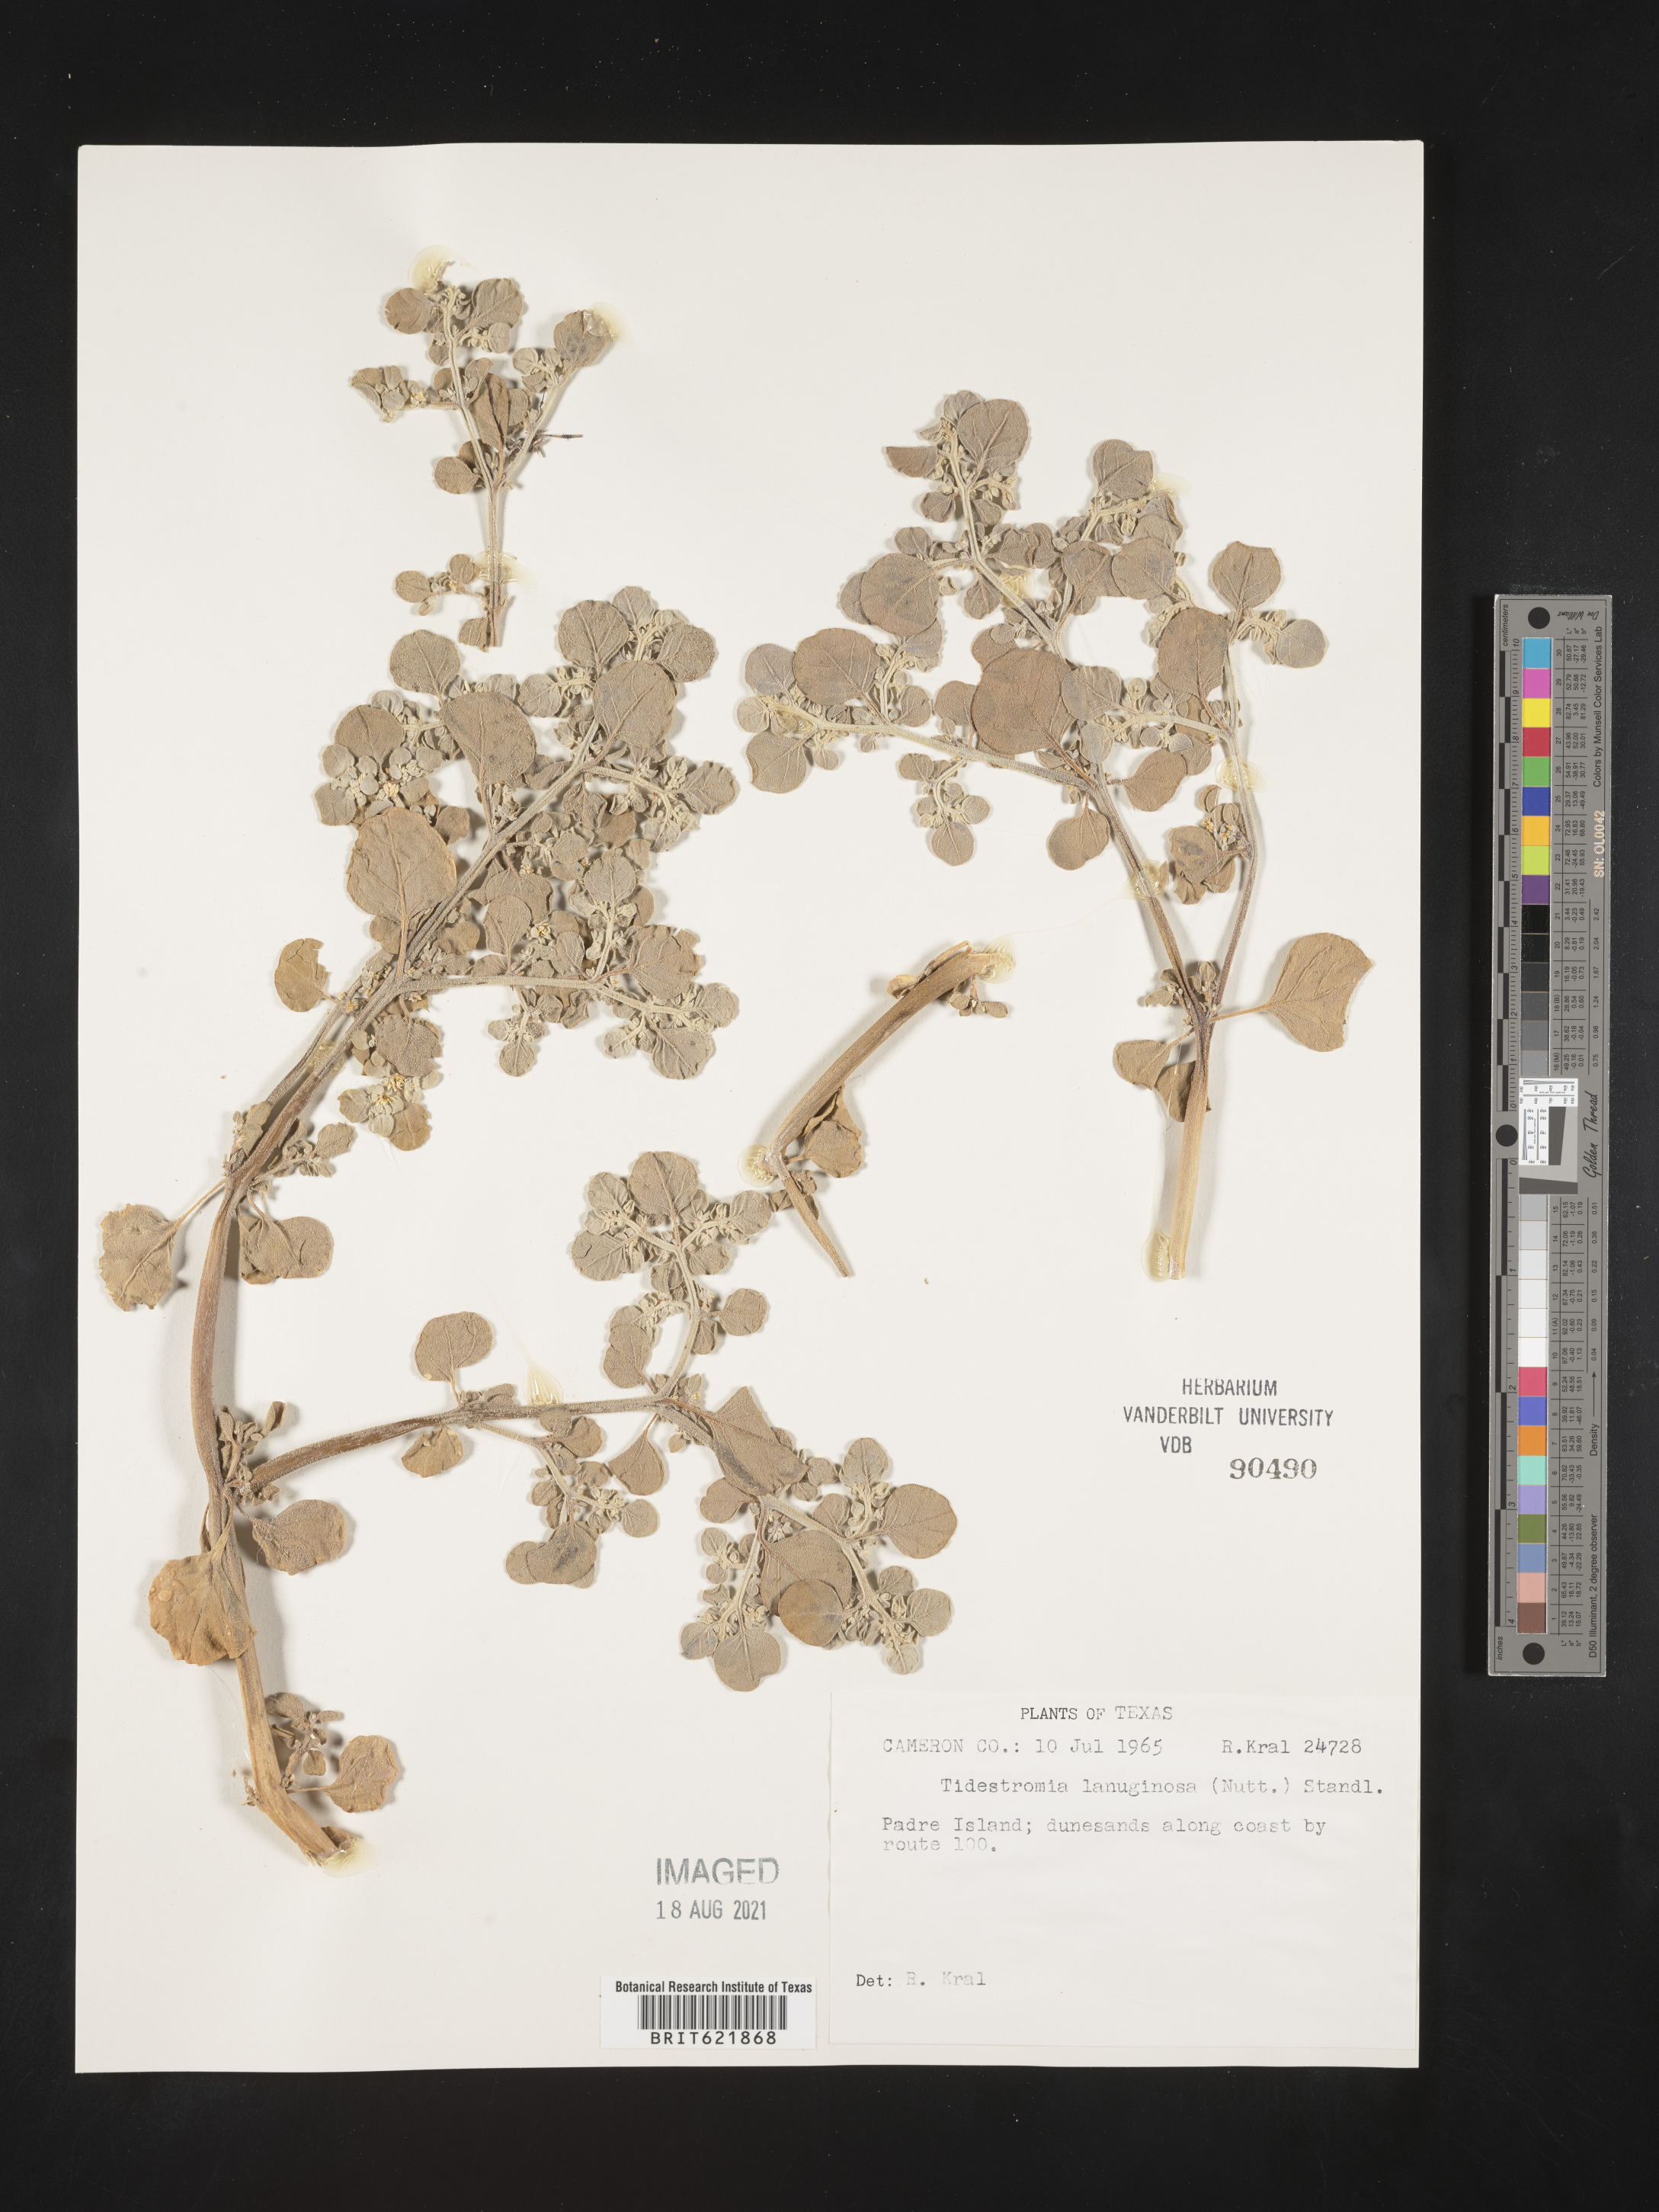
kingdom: Plantae
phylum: Tracheophyta
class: Magnoliopsida
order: Caryophyllales
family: Amaranthaceae
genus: Tidestromia
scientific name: Tidestromia lanuginosa
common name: Woolly tidestromia
